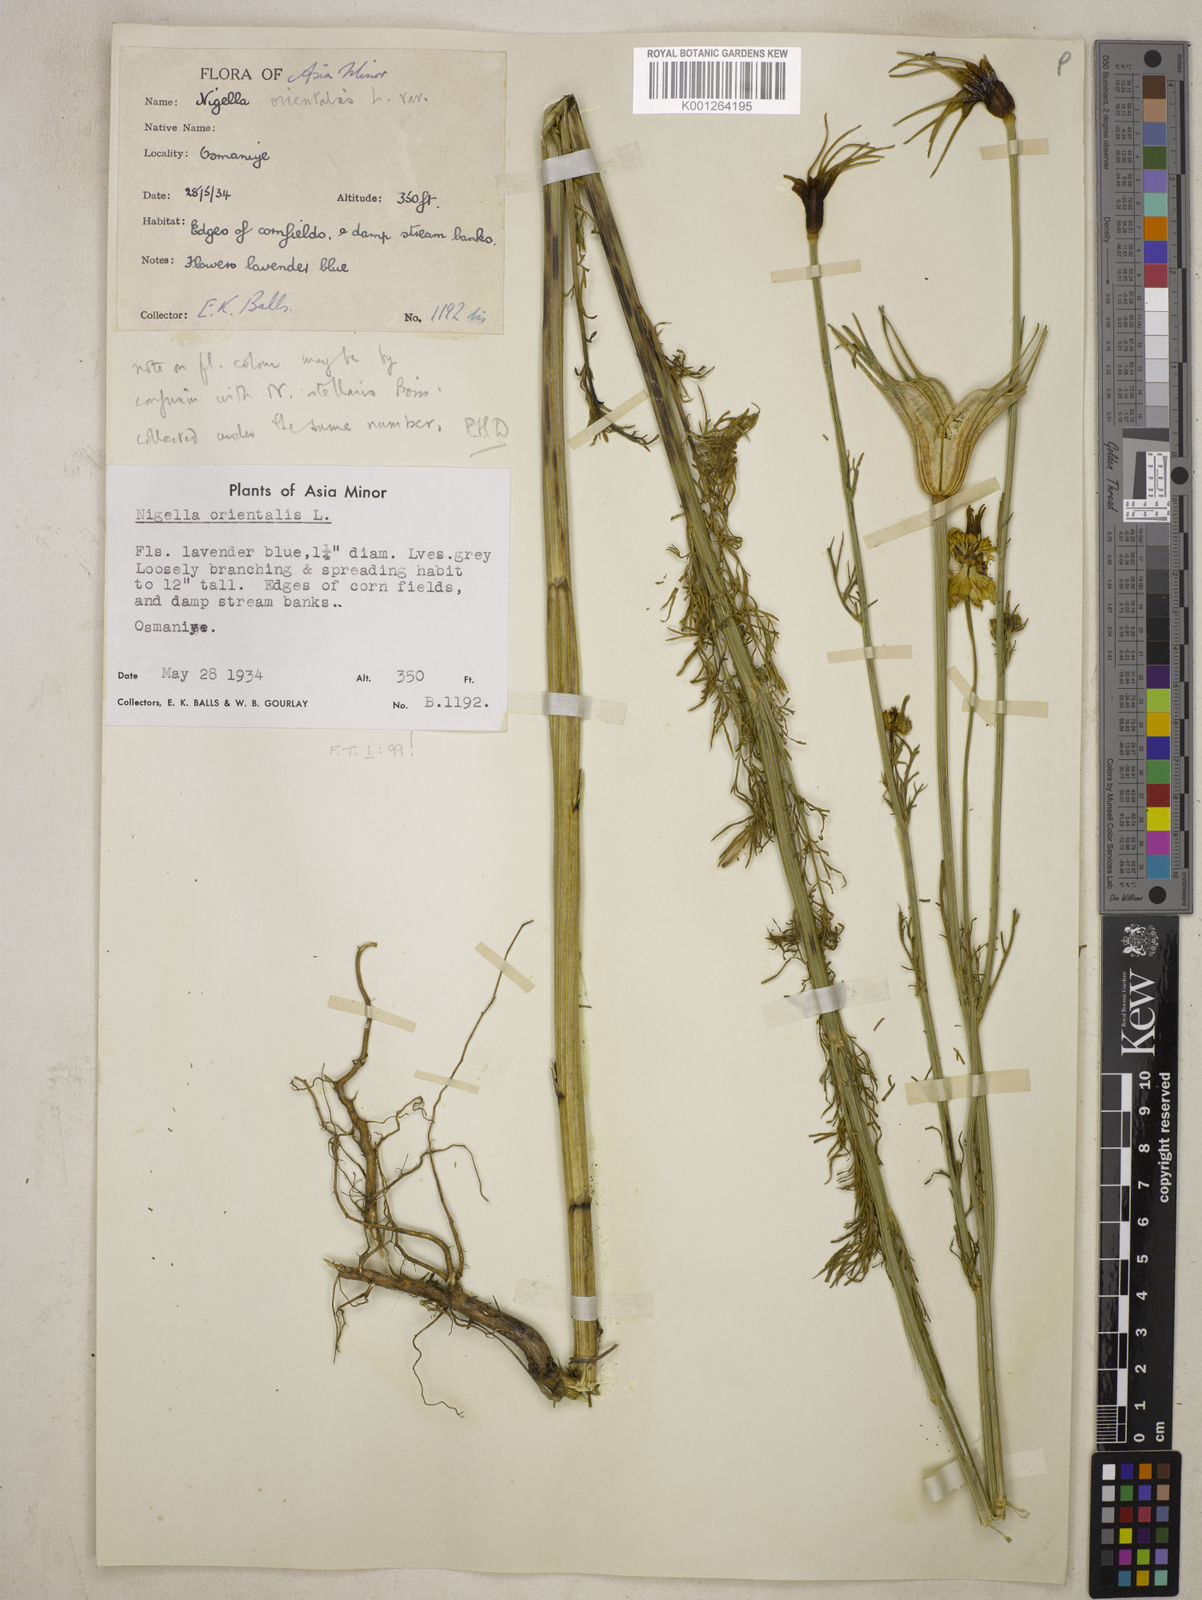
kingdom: Plantae
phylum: Tracheophyta
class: Magnoliopsida
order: Ranunculales
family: Ranunculaceae
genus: Nigella
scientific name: Nigella orientalis
